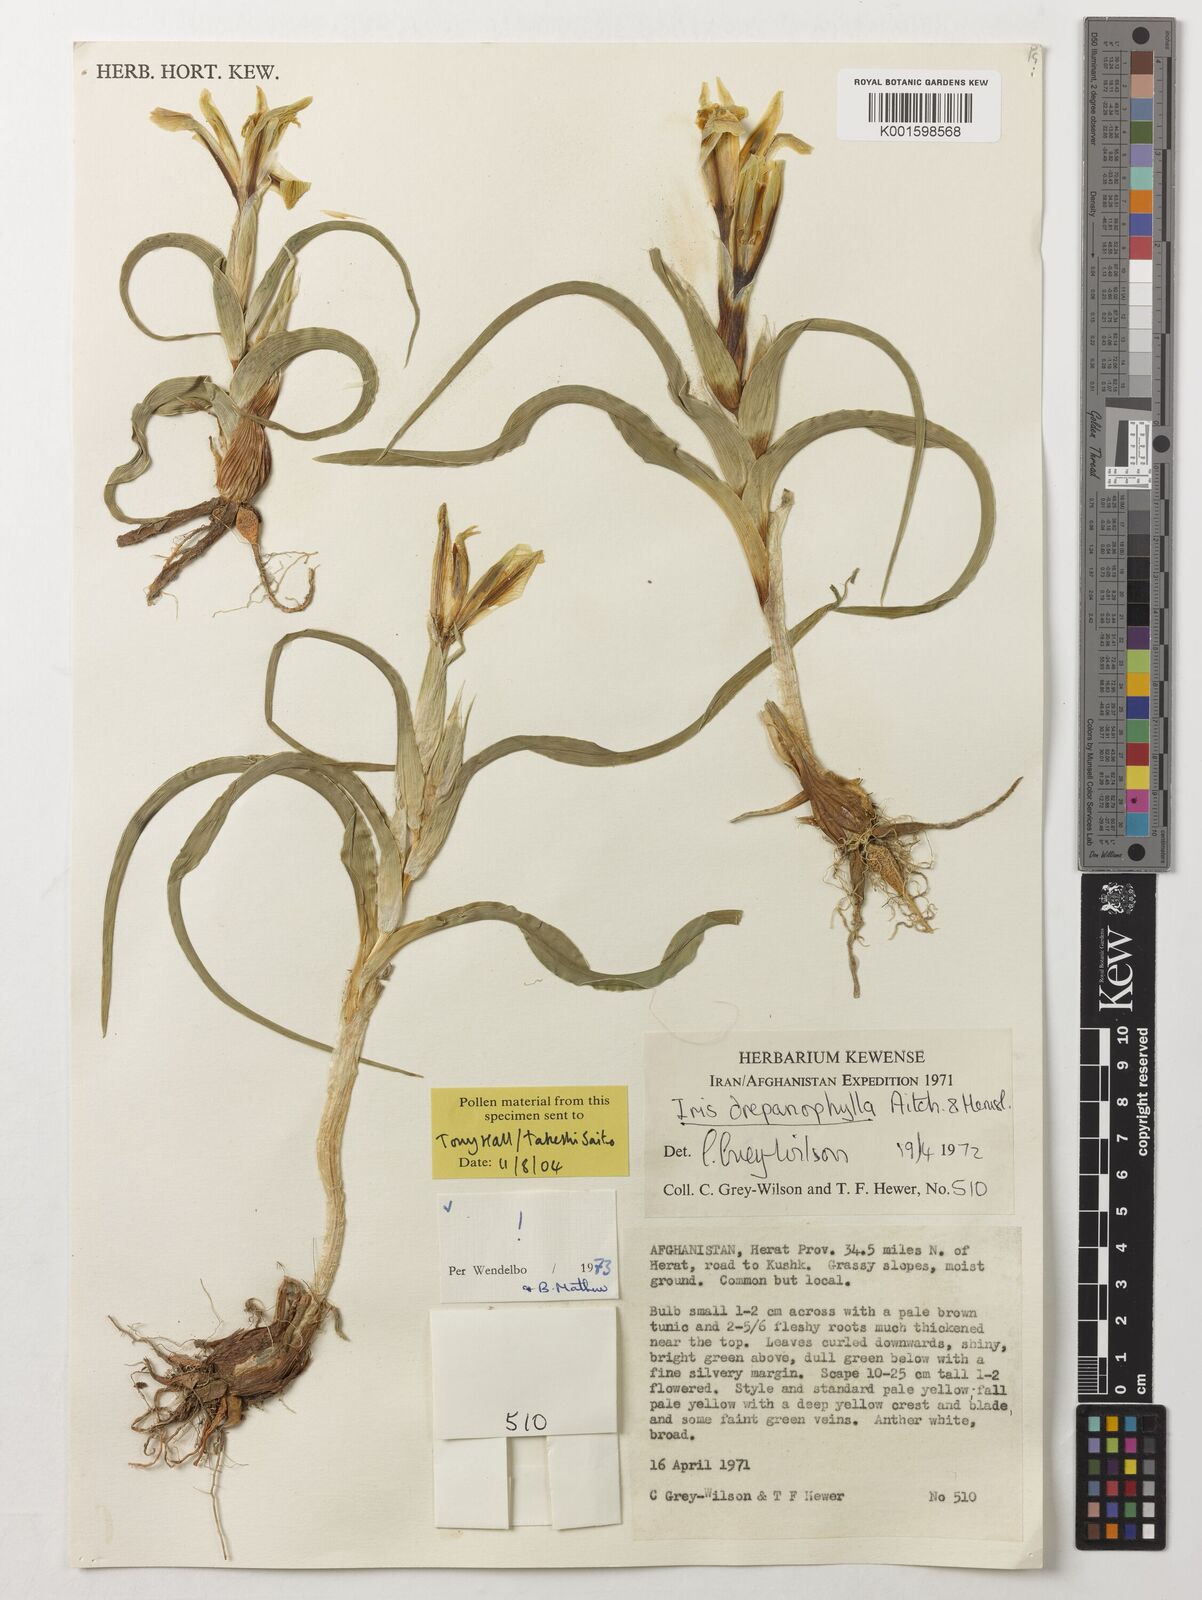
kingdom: Plantae
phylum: Tracheophyta
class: Liliopsida
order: Asparagales
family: Iridaceae
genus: Iris
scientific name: Iris drepanophylla
